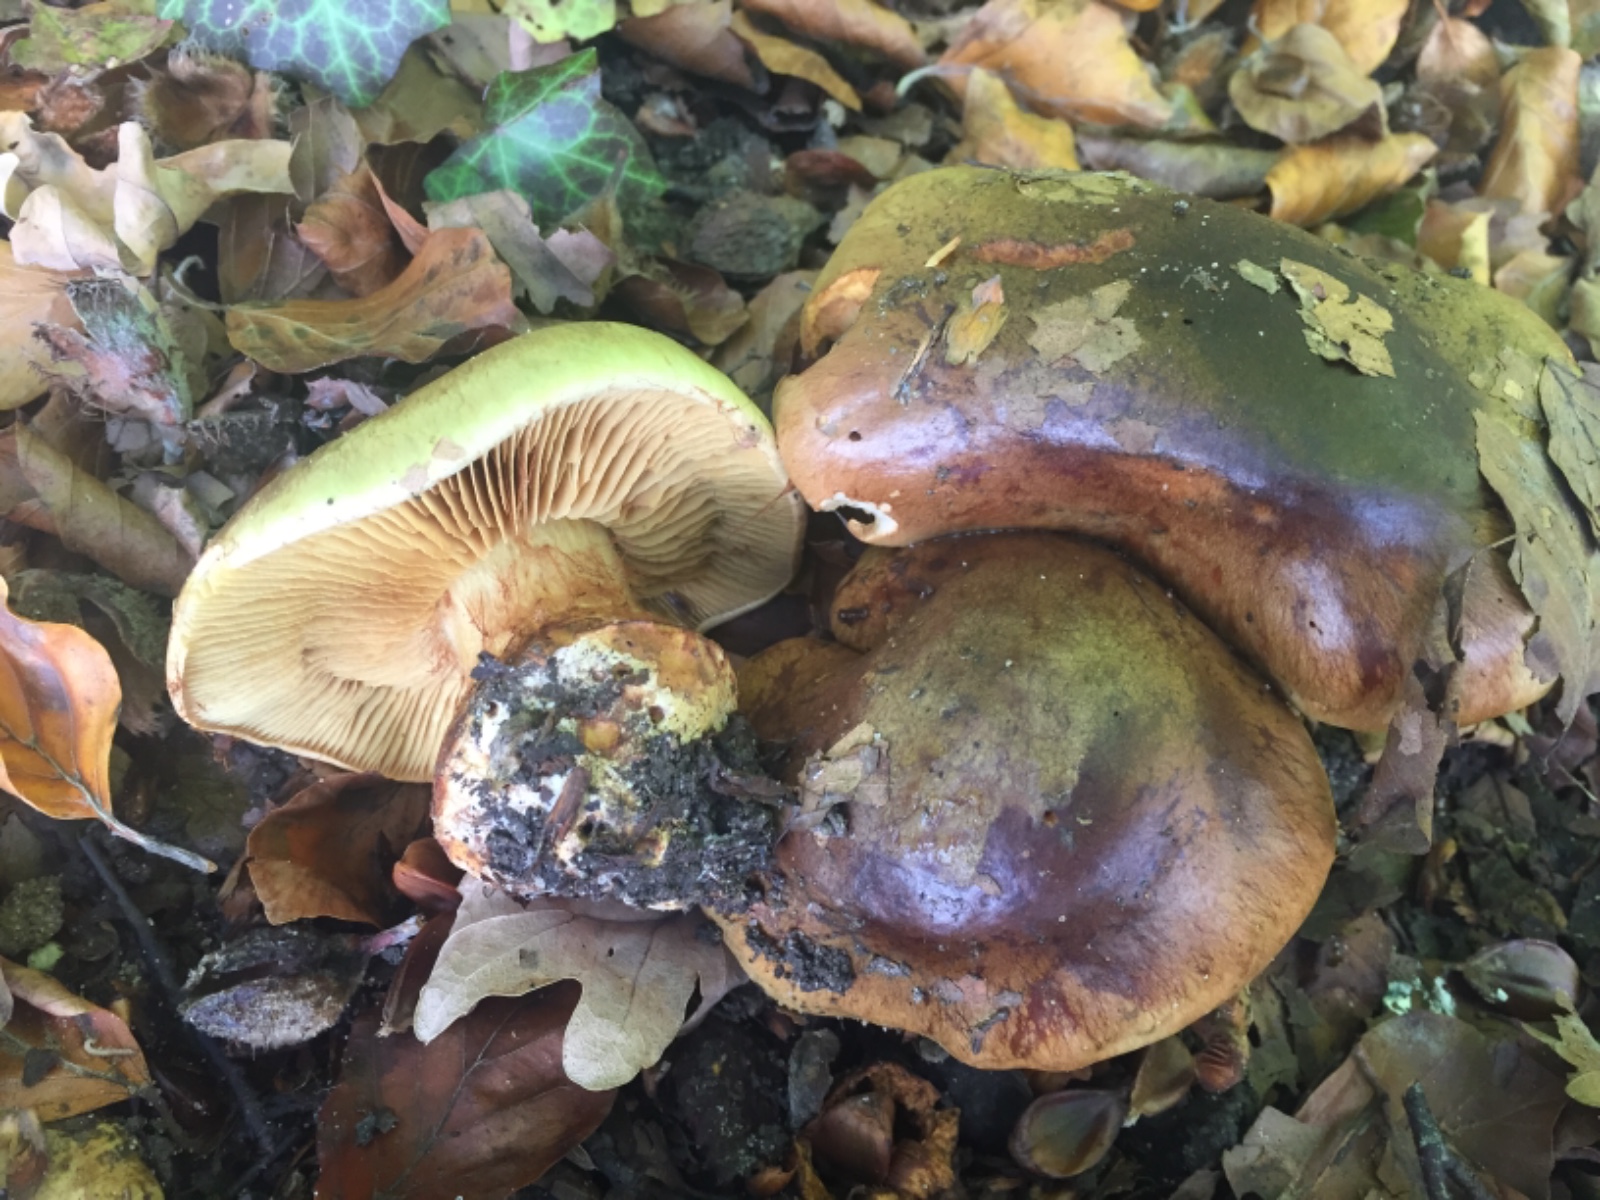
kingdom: Fungi
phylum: Basidiomycota
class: Agaricomycetes
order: Agaricales
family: Cortinariaceae
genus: Calonarius
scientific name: Calonarius xanthochlorus
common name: gulgrøn slørhat
